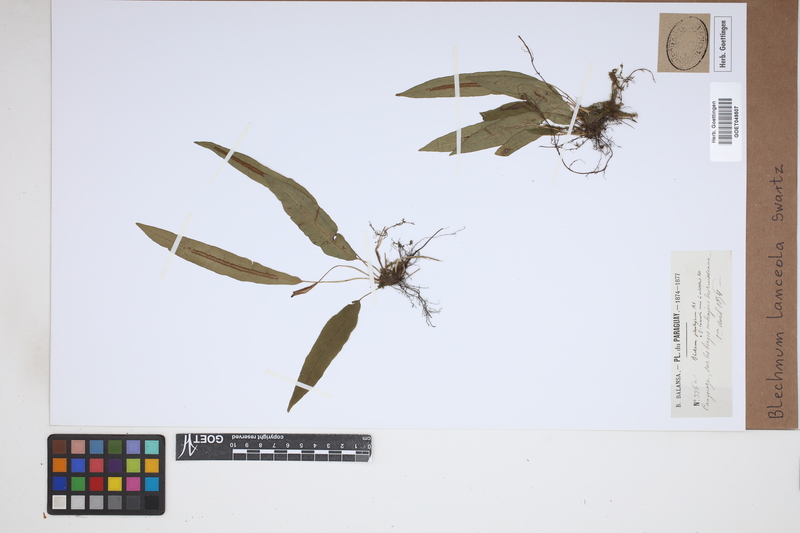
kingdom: Plantae
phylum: Tracheophyta
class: Polypodiopsida
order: Polypodiales
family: Blechnaceae
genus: Blechnum
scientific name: Blechnum lanceola
